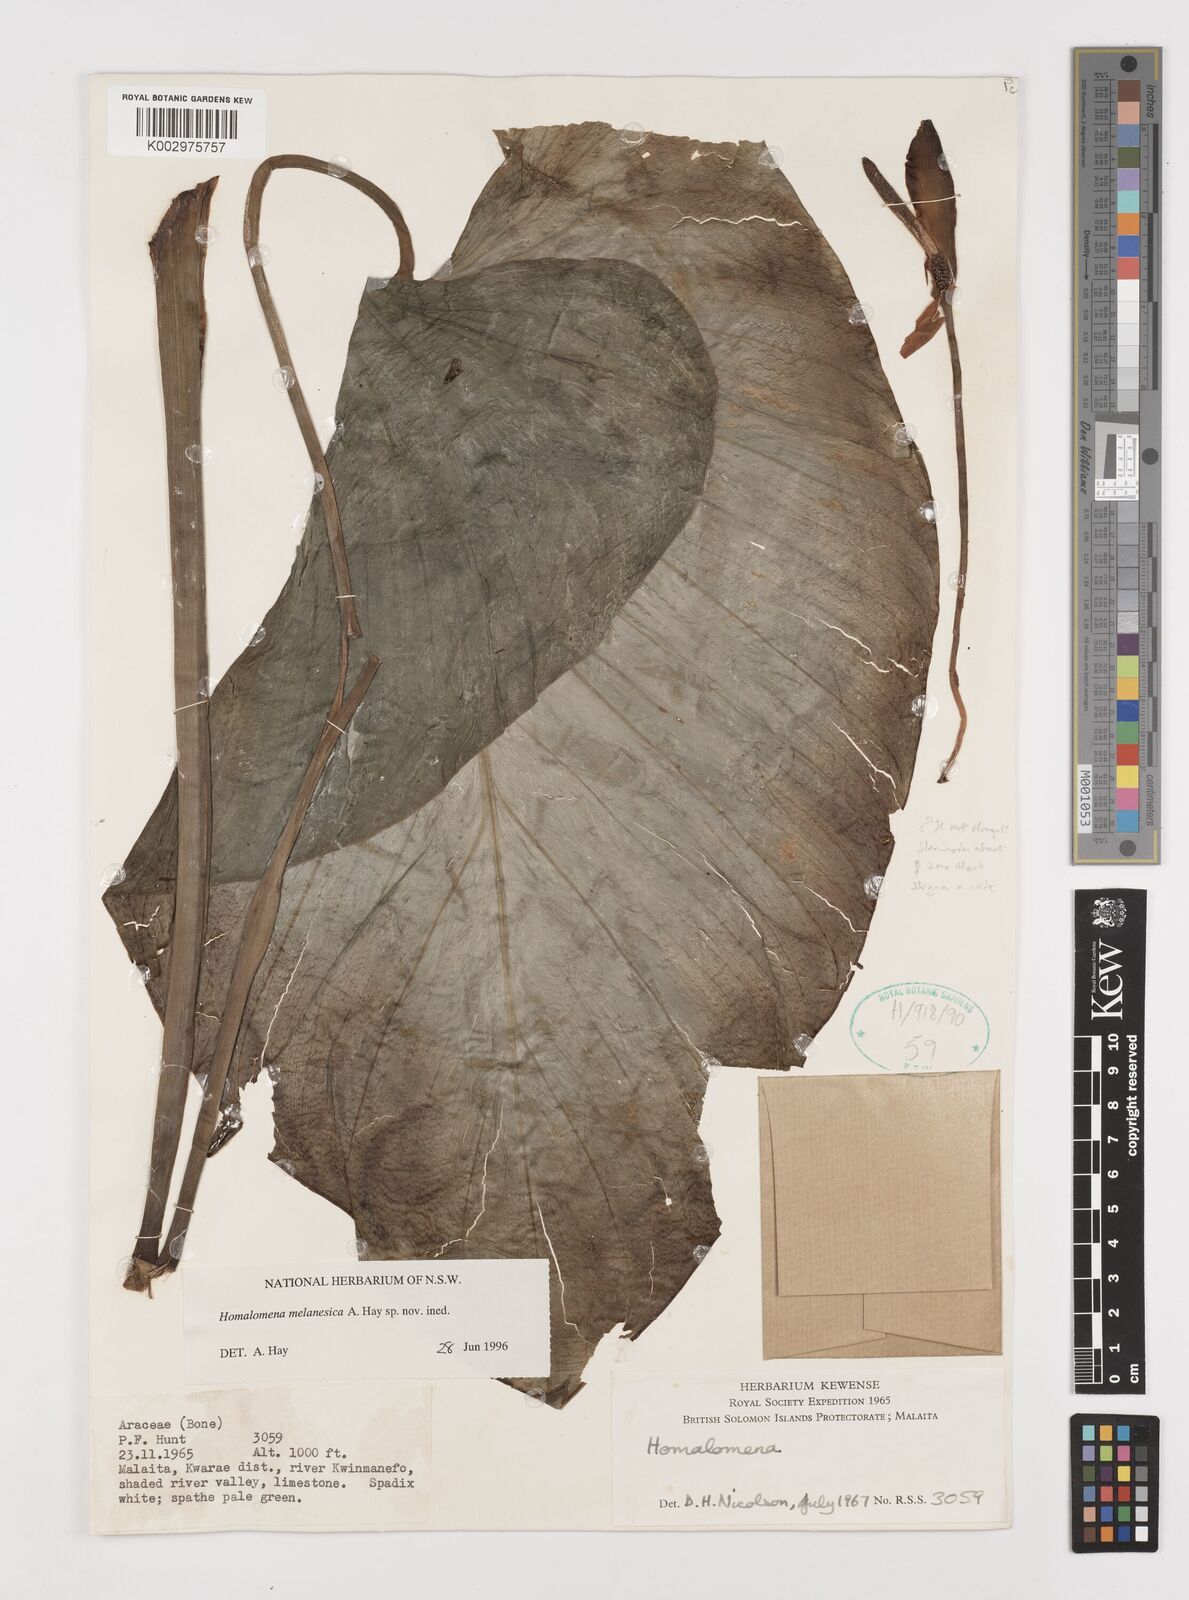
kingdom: Plantae
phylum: Tracheophyta
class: Liliopsida
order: Alismatales
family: Araceae
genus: Homalomena
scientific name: Homalomena melanesica
